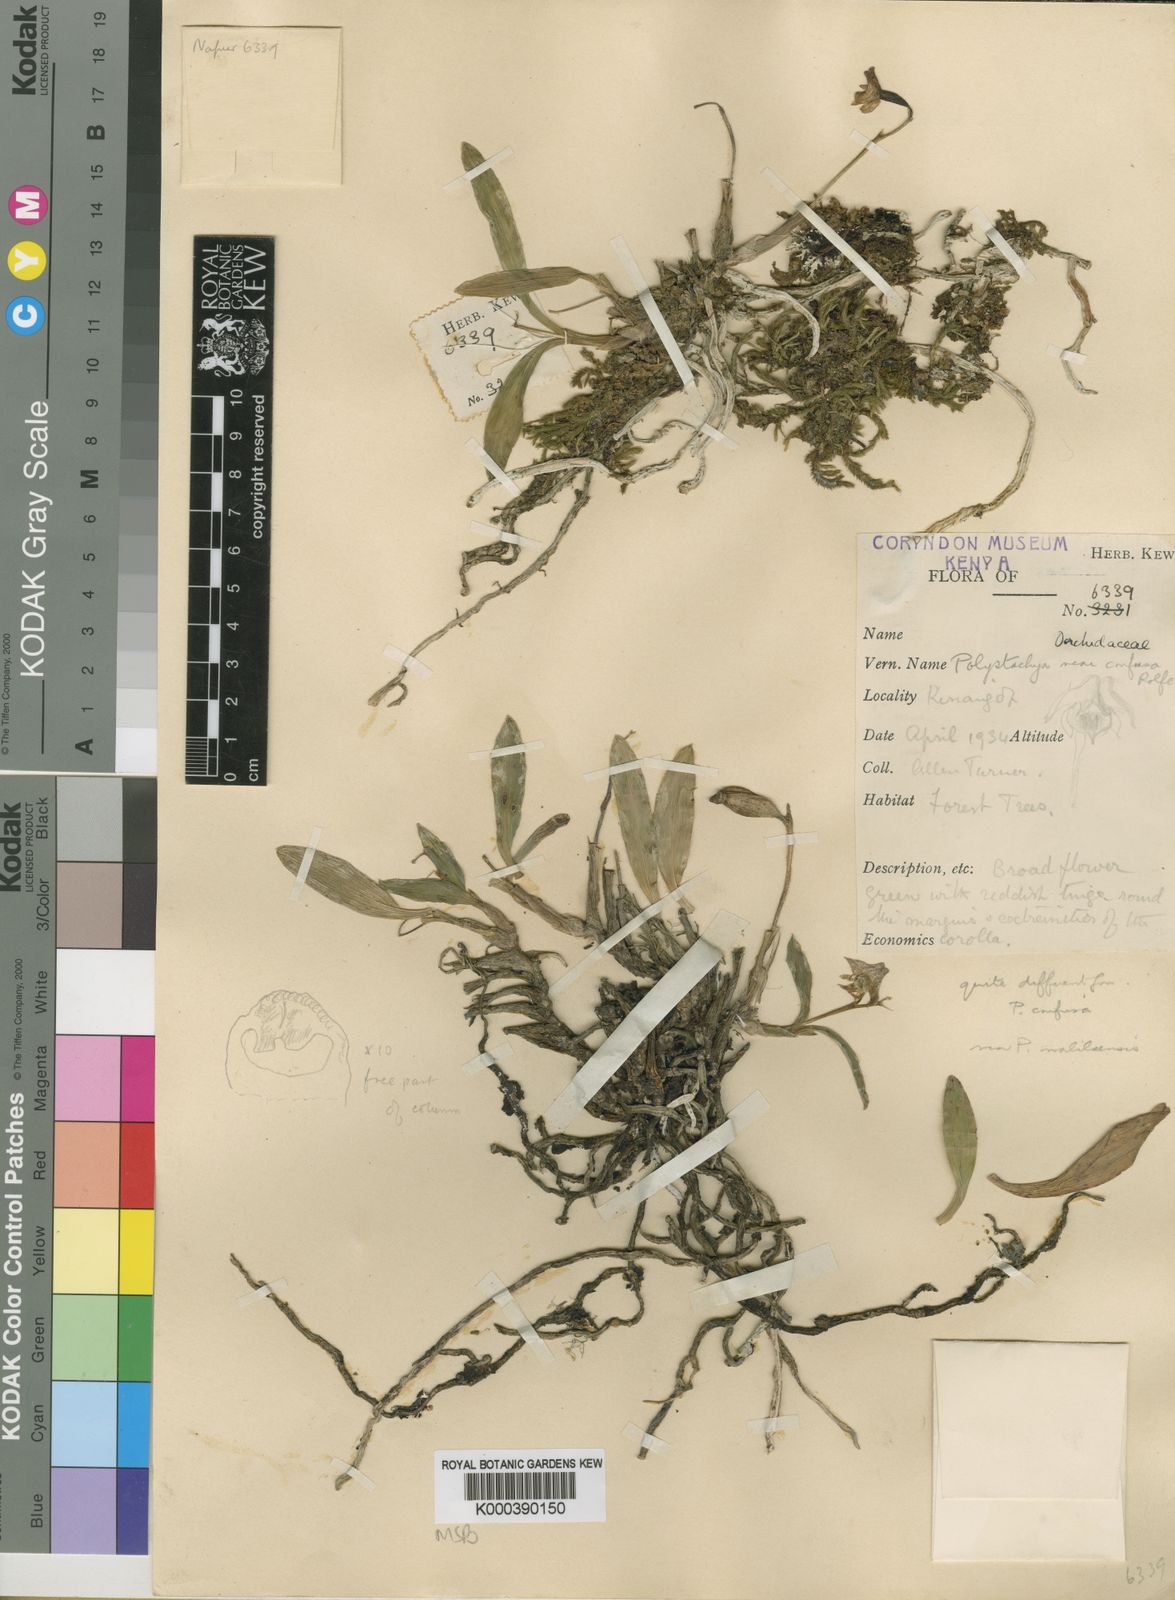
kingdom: Plantae
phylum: Tracheophyta
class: Liliopsida
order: Asparagales
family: Orchidaceae
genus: Polystachya
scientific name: Polystachya heckmanniana
